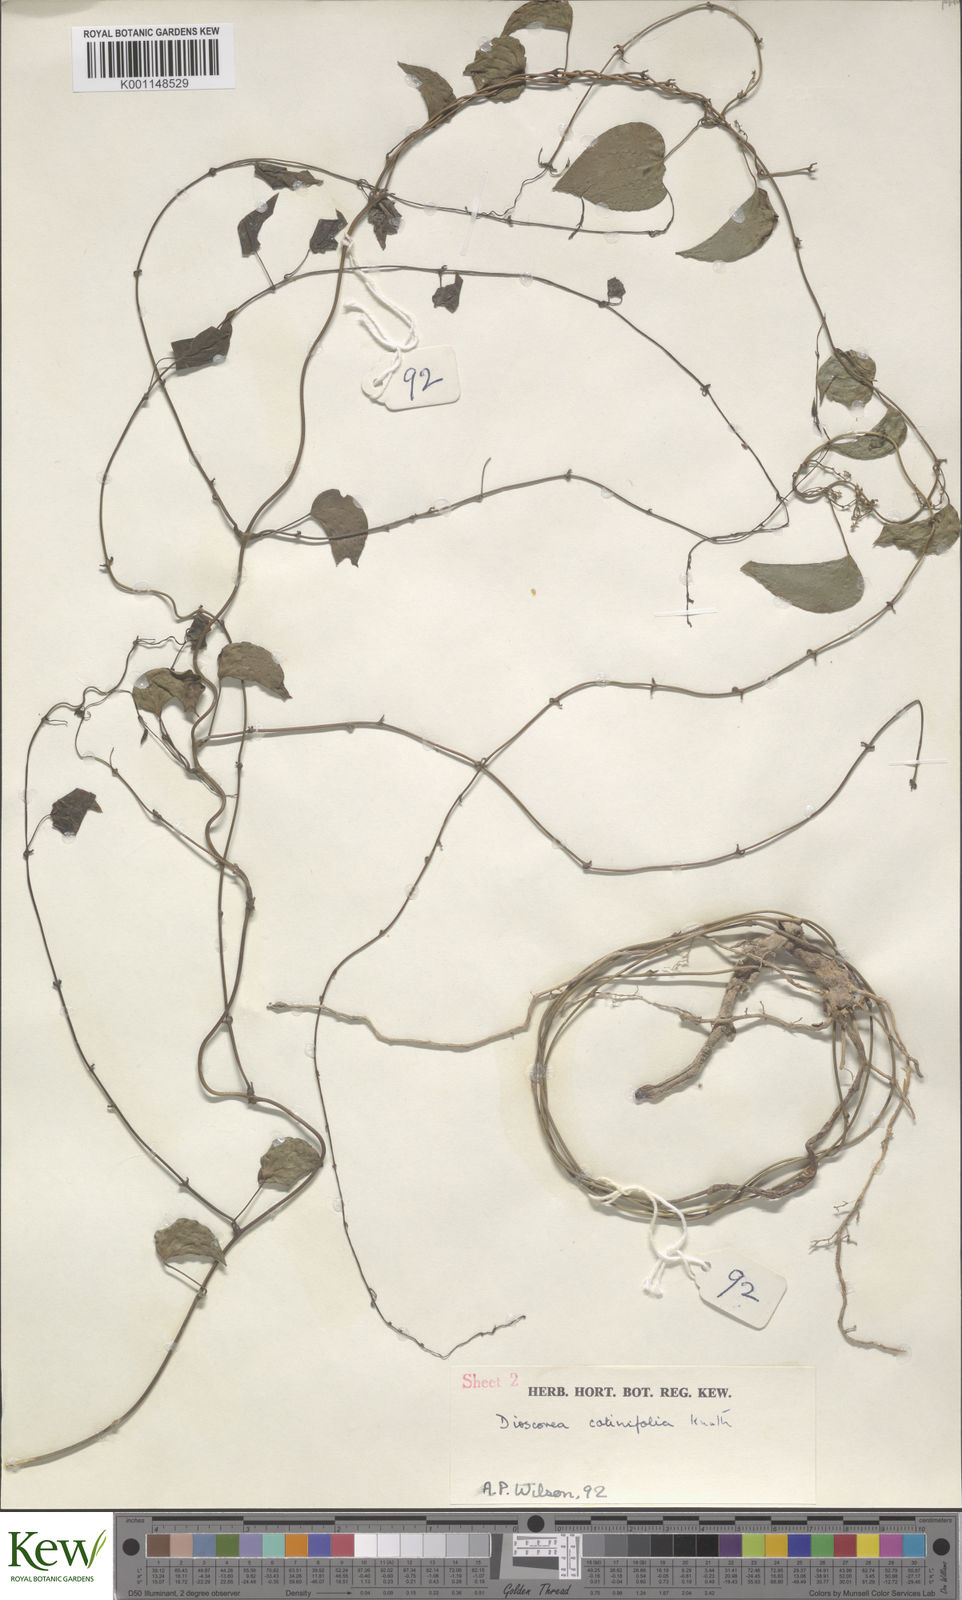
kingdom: Plantae
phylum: Tracheophyta
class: Liliopsida
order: Dioscoreales
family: Dioscoreaceae
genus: Dioscorea
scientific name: Dioscorea cotinifolia
